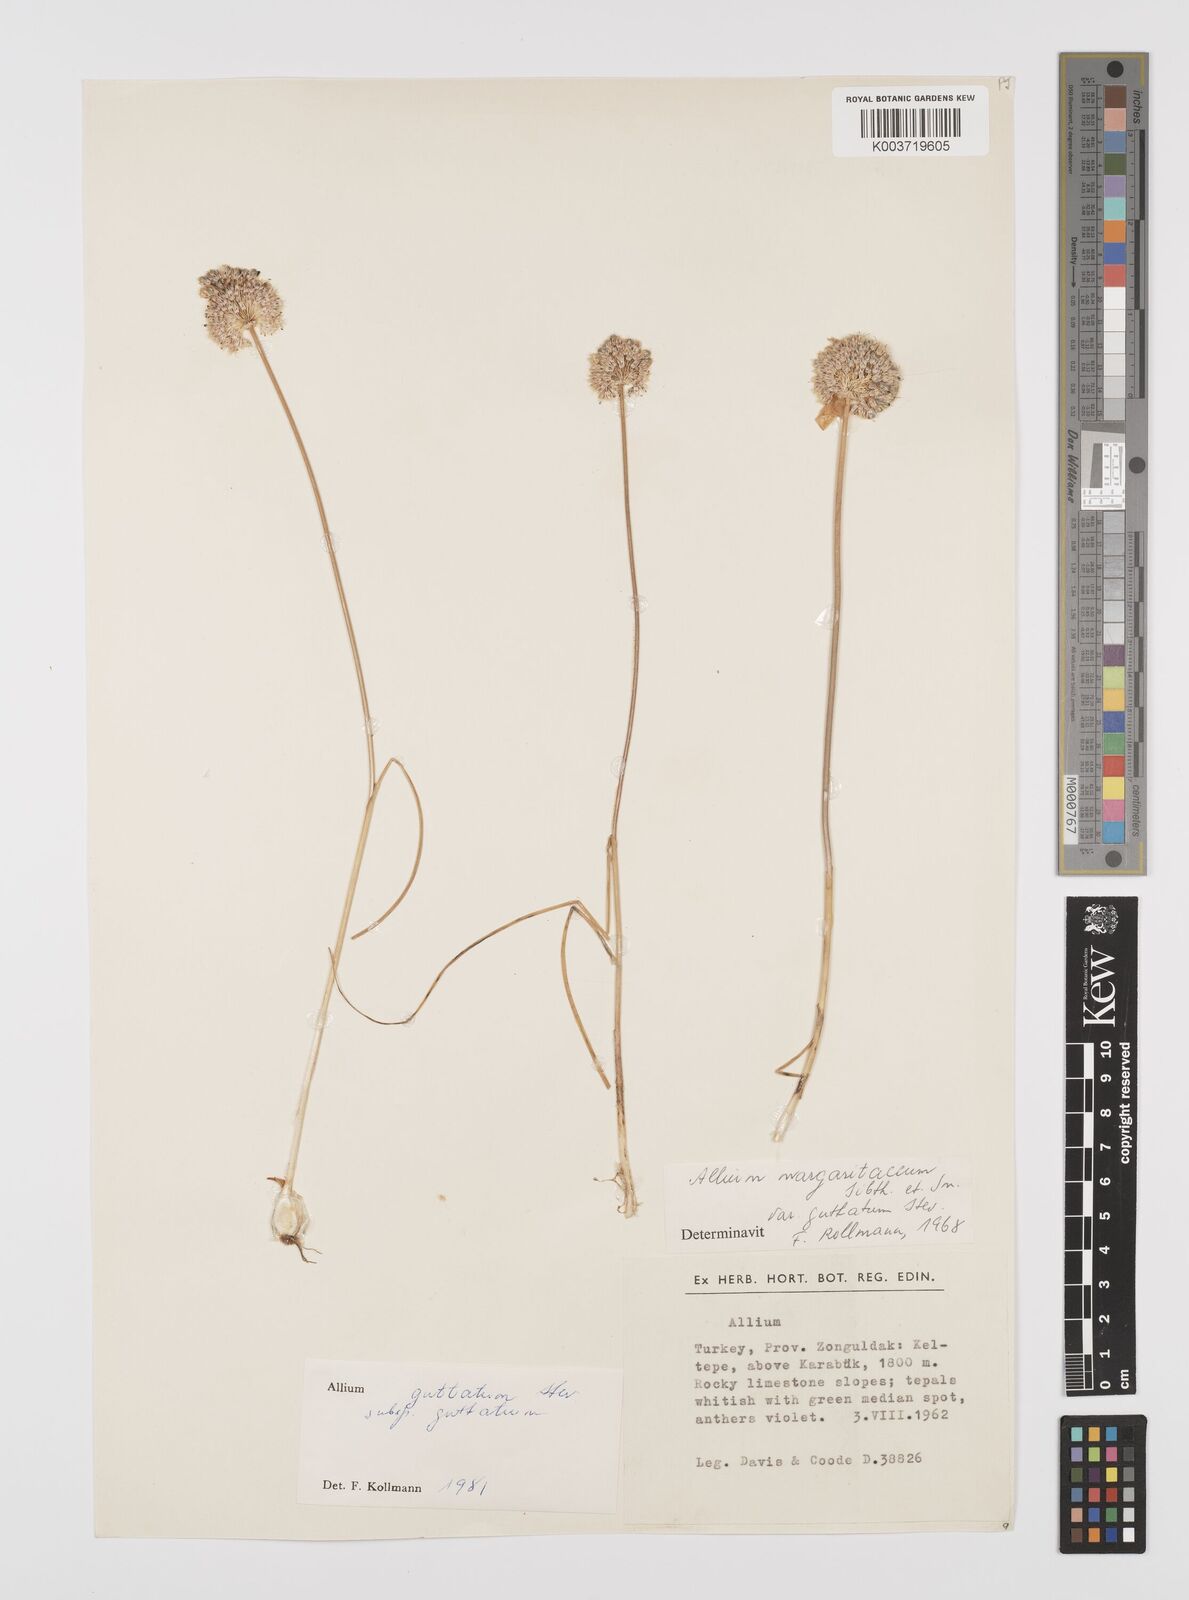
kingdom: Plantae
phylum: Tracheophyta
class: Liliopsida
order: Asparagales
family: Amaryllidaceae
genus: Allium
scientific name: Allium guttatum
